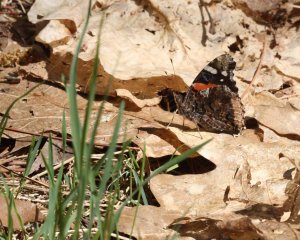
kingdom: Animalia
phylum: Arthropoda
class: Insecta
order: Lepidoptera
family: Nymphalidae
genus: Vanessa
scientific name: Vanessa atalanta
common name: Red Admiral
